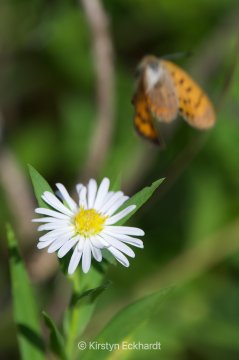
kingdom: Animalia
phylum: Arthropoda
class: Insecta
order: Lepidoptera
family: Sesiidae
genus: Sesia
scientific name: Sesia Lycaena helloides
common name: Purplish Copper
